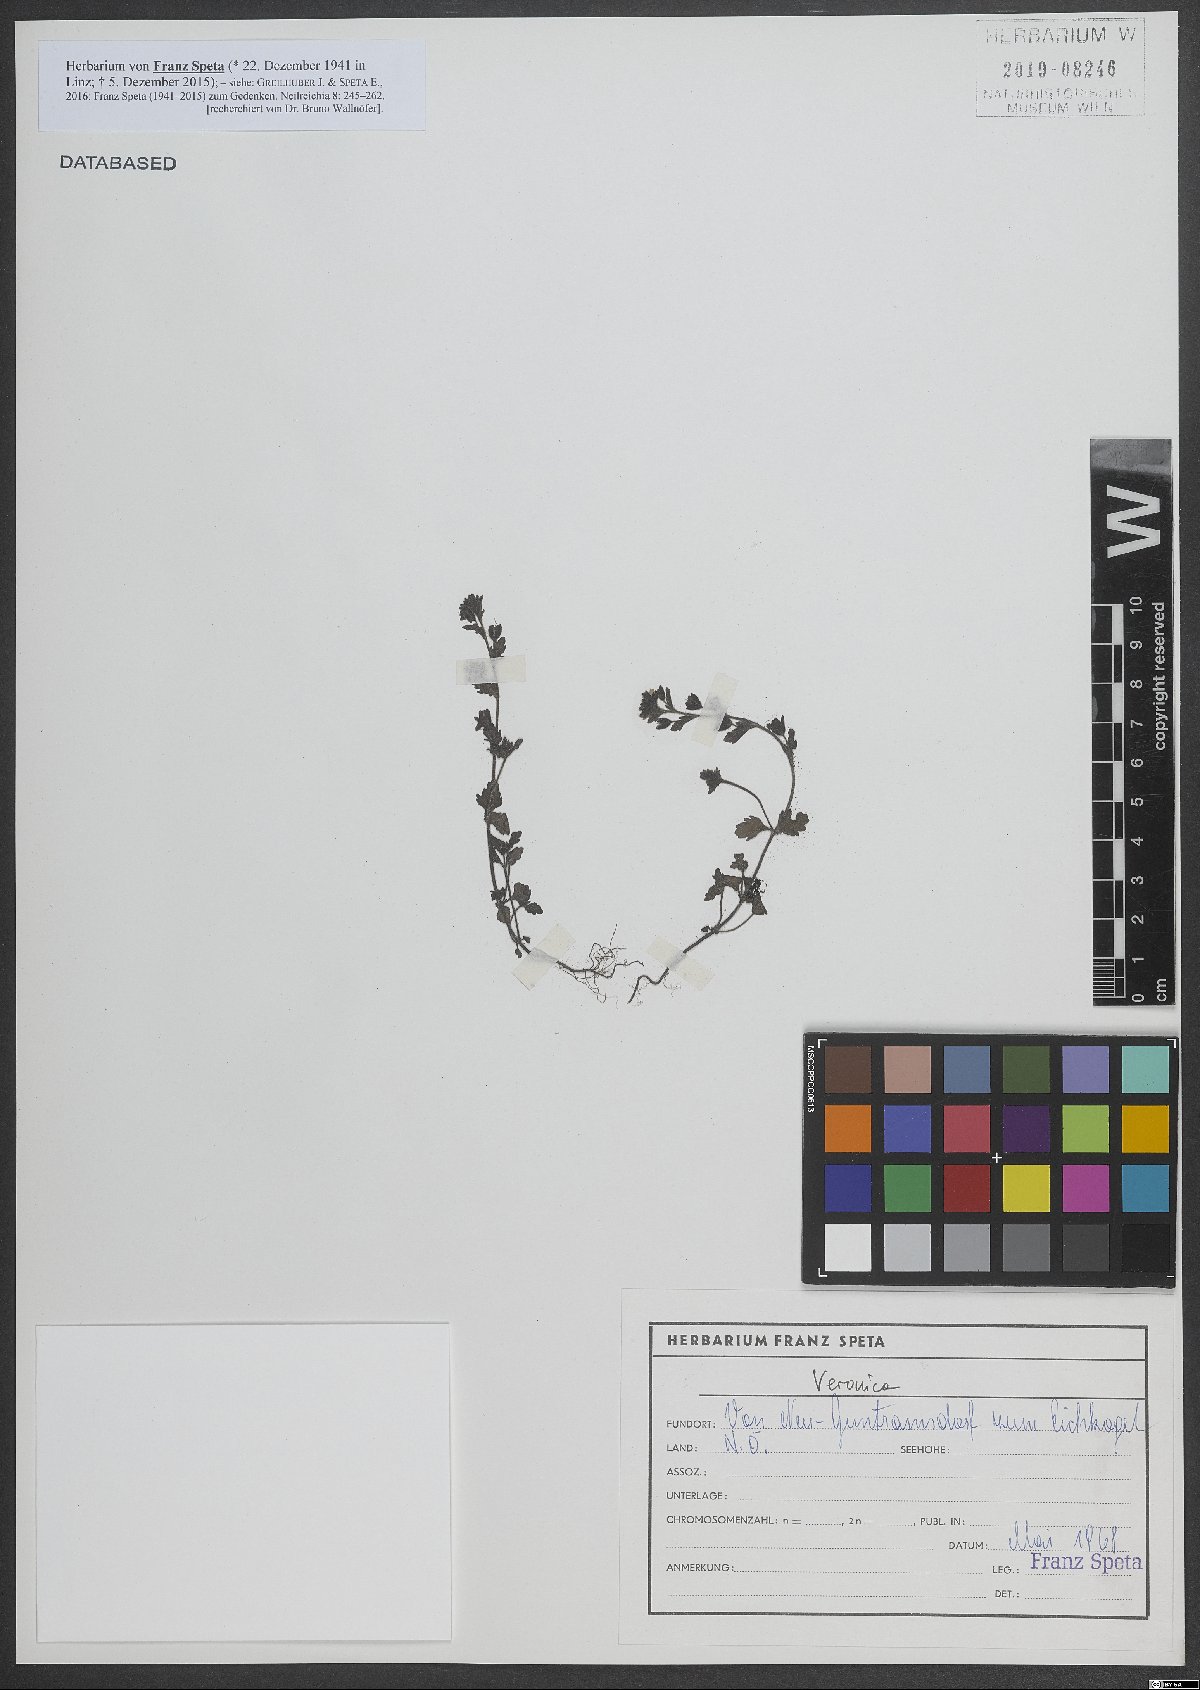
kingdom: Plantae
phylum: Tracheophyta
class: Magnoliopsida
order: Lamiales
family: Plantaginaceae
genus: Veronica
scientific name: Veronica
